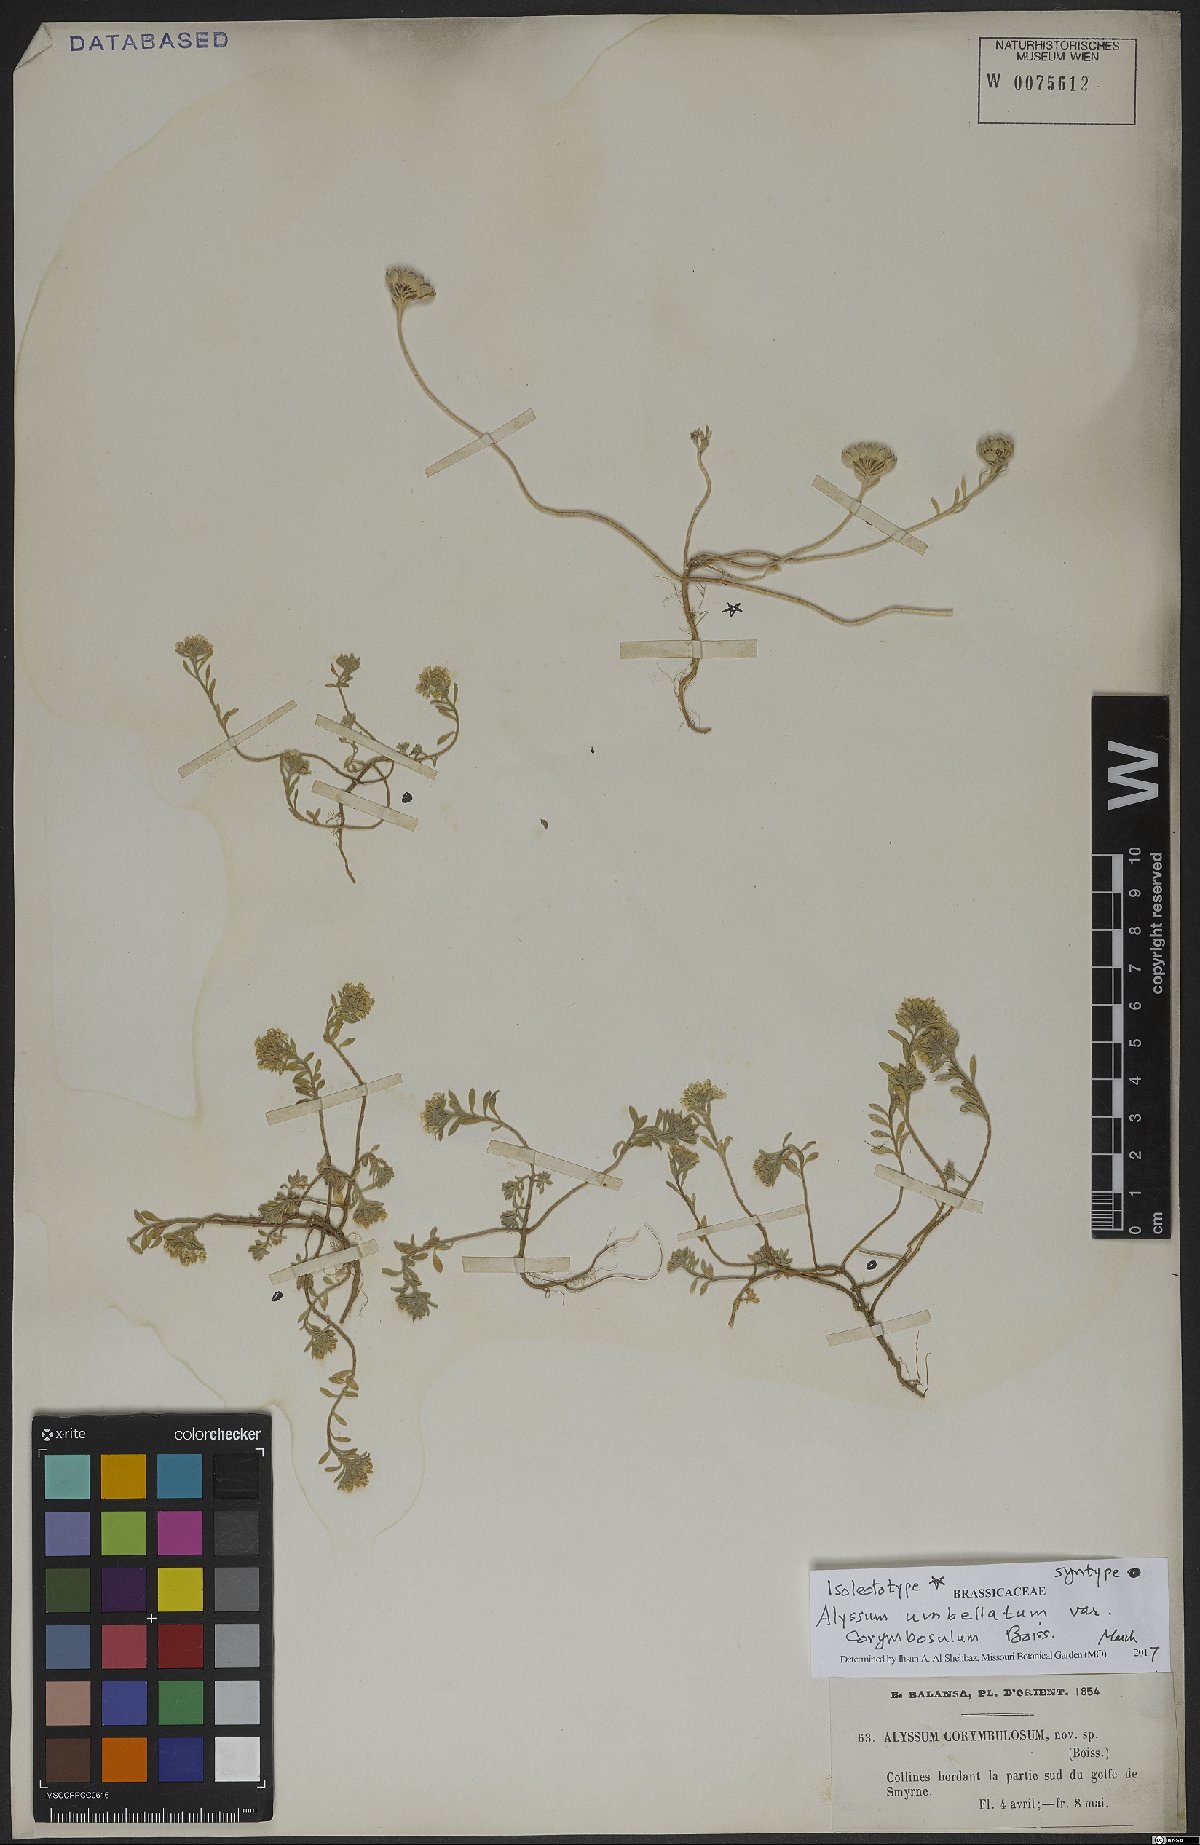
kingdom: Plantae
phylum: Tracheophyta
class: Magnoliopsida
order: Brassicales
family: Brassicaceae
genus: Alyssum
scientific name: Alyssum umbellatum
